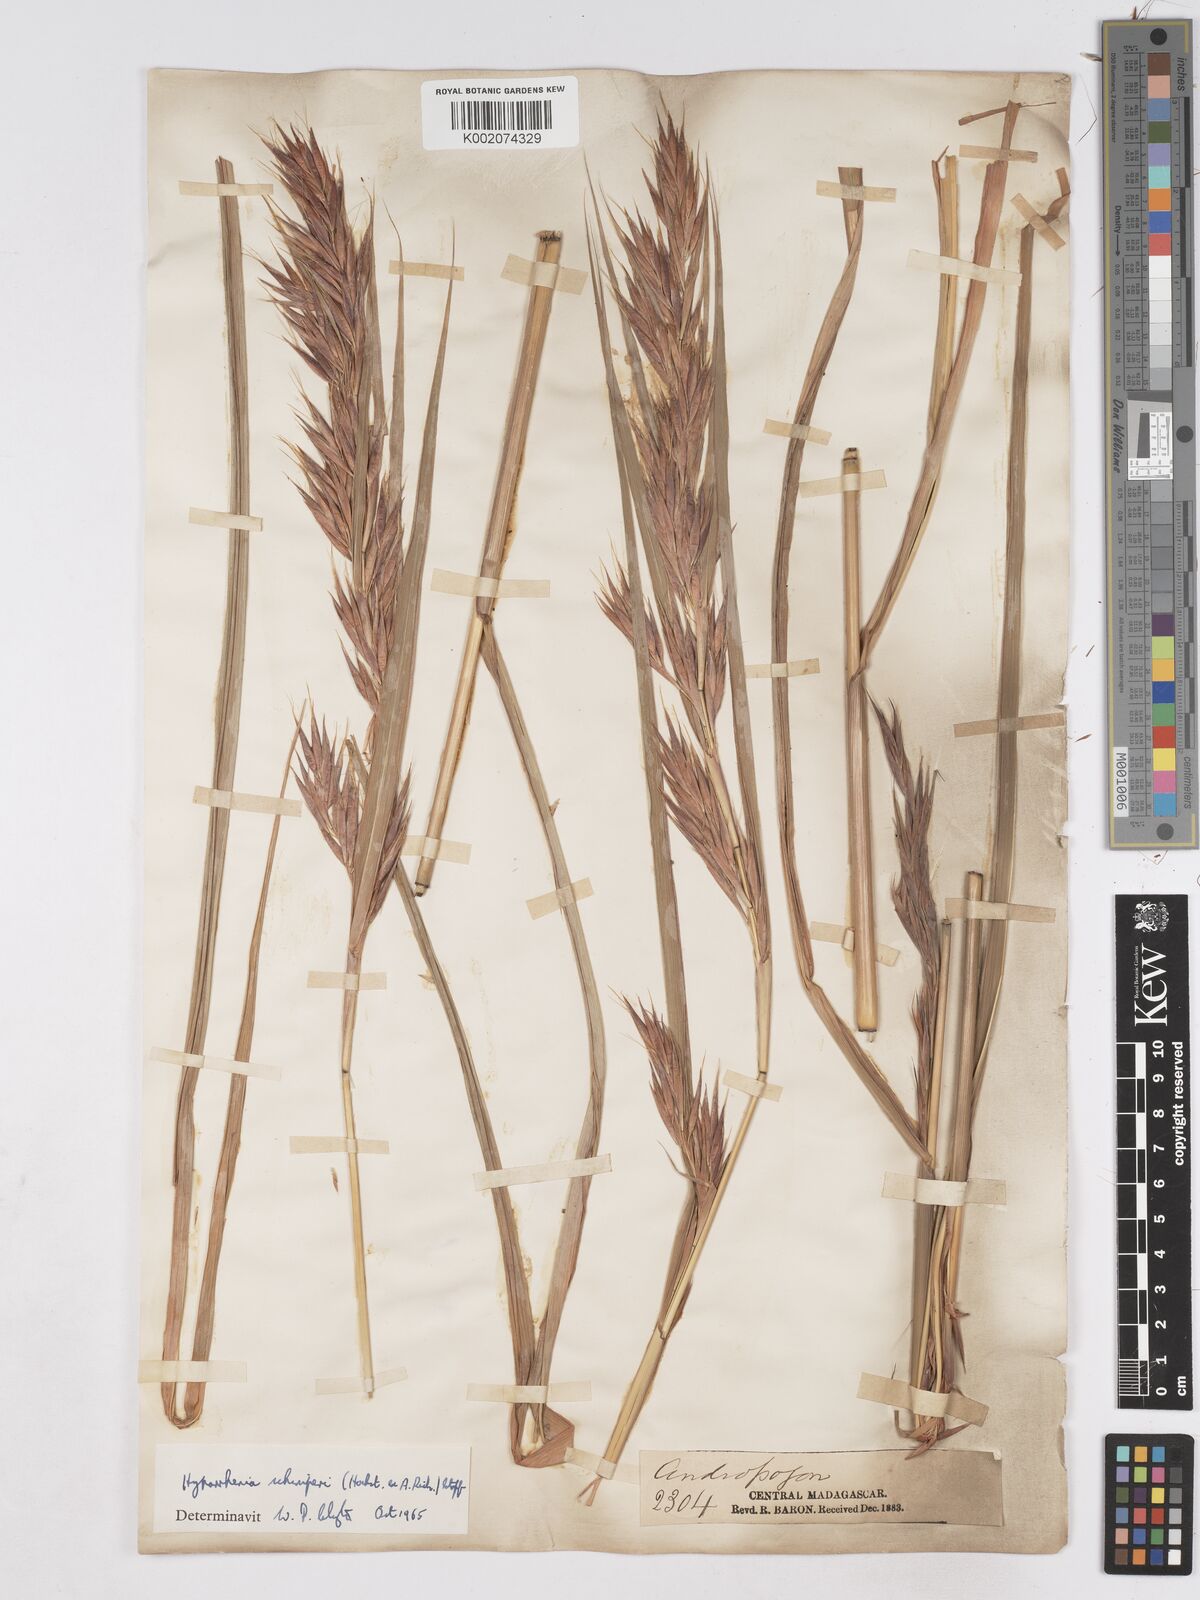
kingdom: Plantae
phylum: Tracheophyta
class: Liliopsida
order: Poales
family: Poaceae
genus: Hyparrhenia
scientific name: Hyparrhenia variabilis
